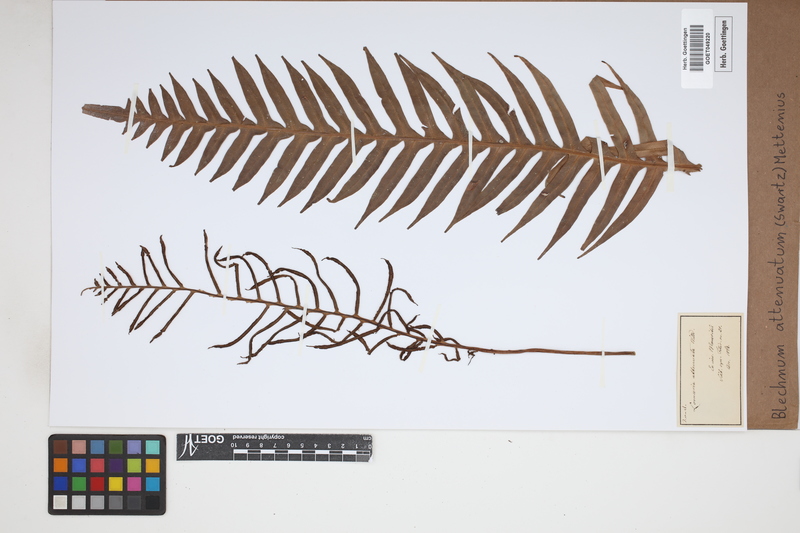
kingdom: Plantae
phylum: Tracheophyta
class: Polypodiopsida
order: Polypodiales
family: Blechnaceae
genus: Lomaridium
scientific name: Lomaridium attenuatum
